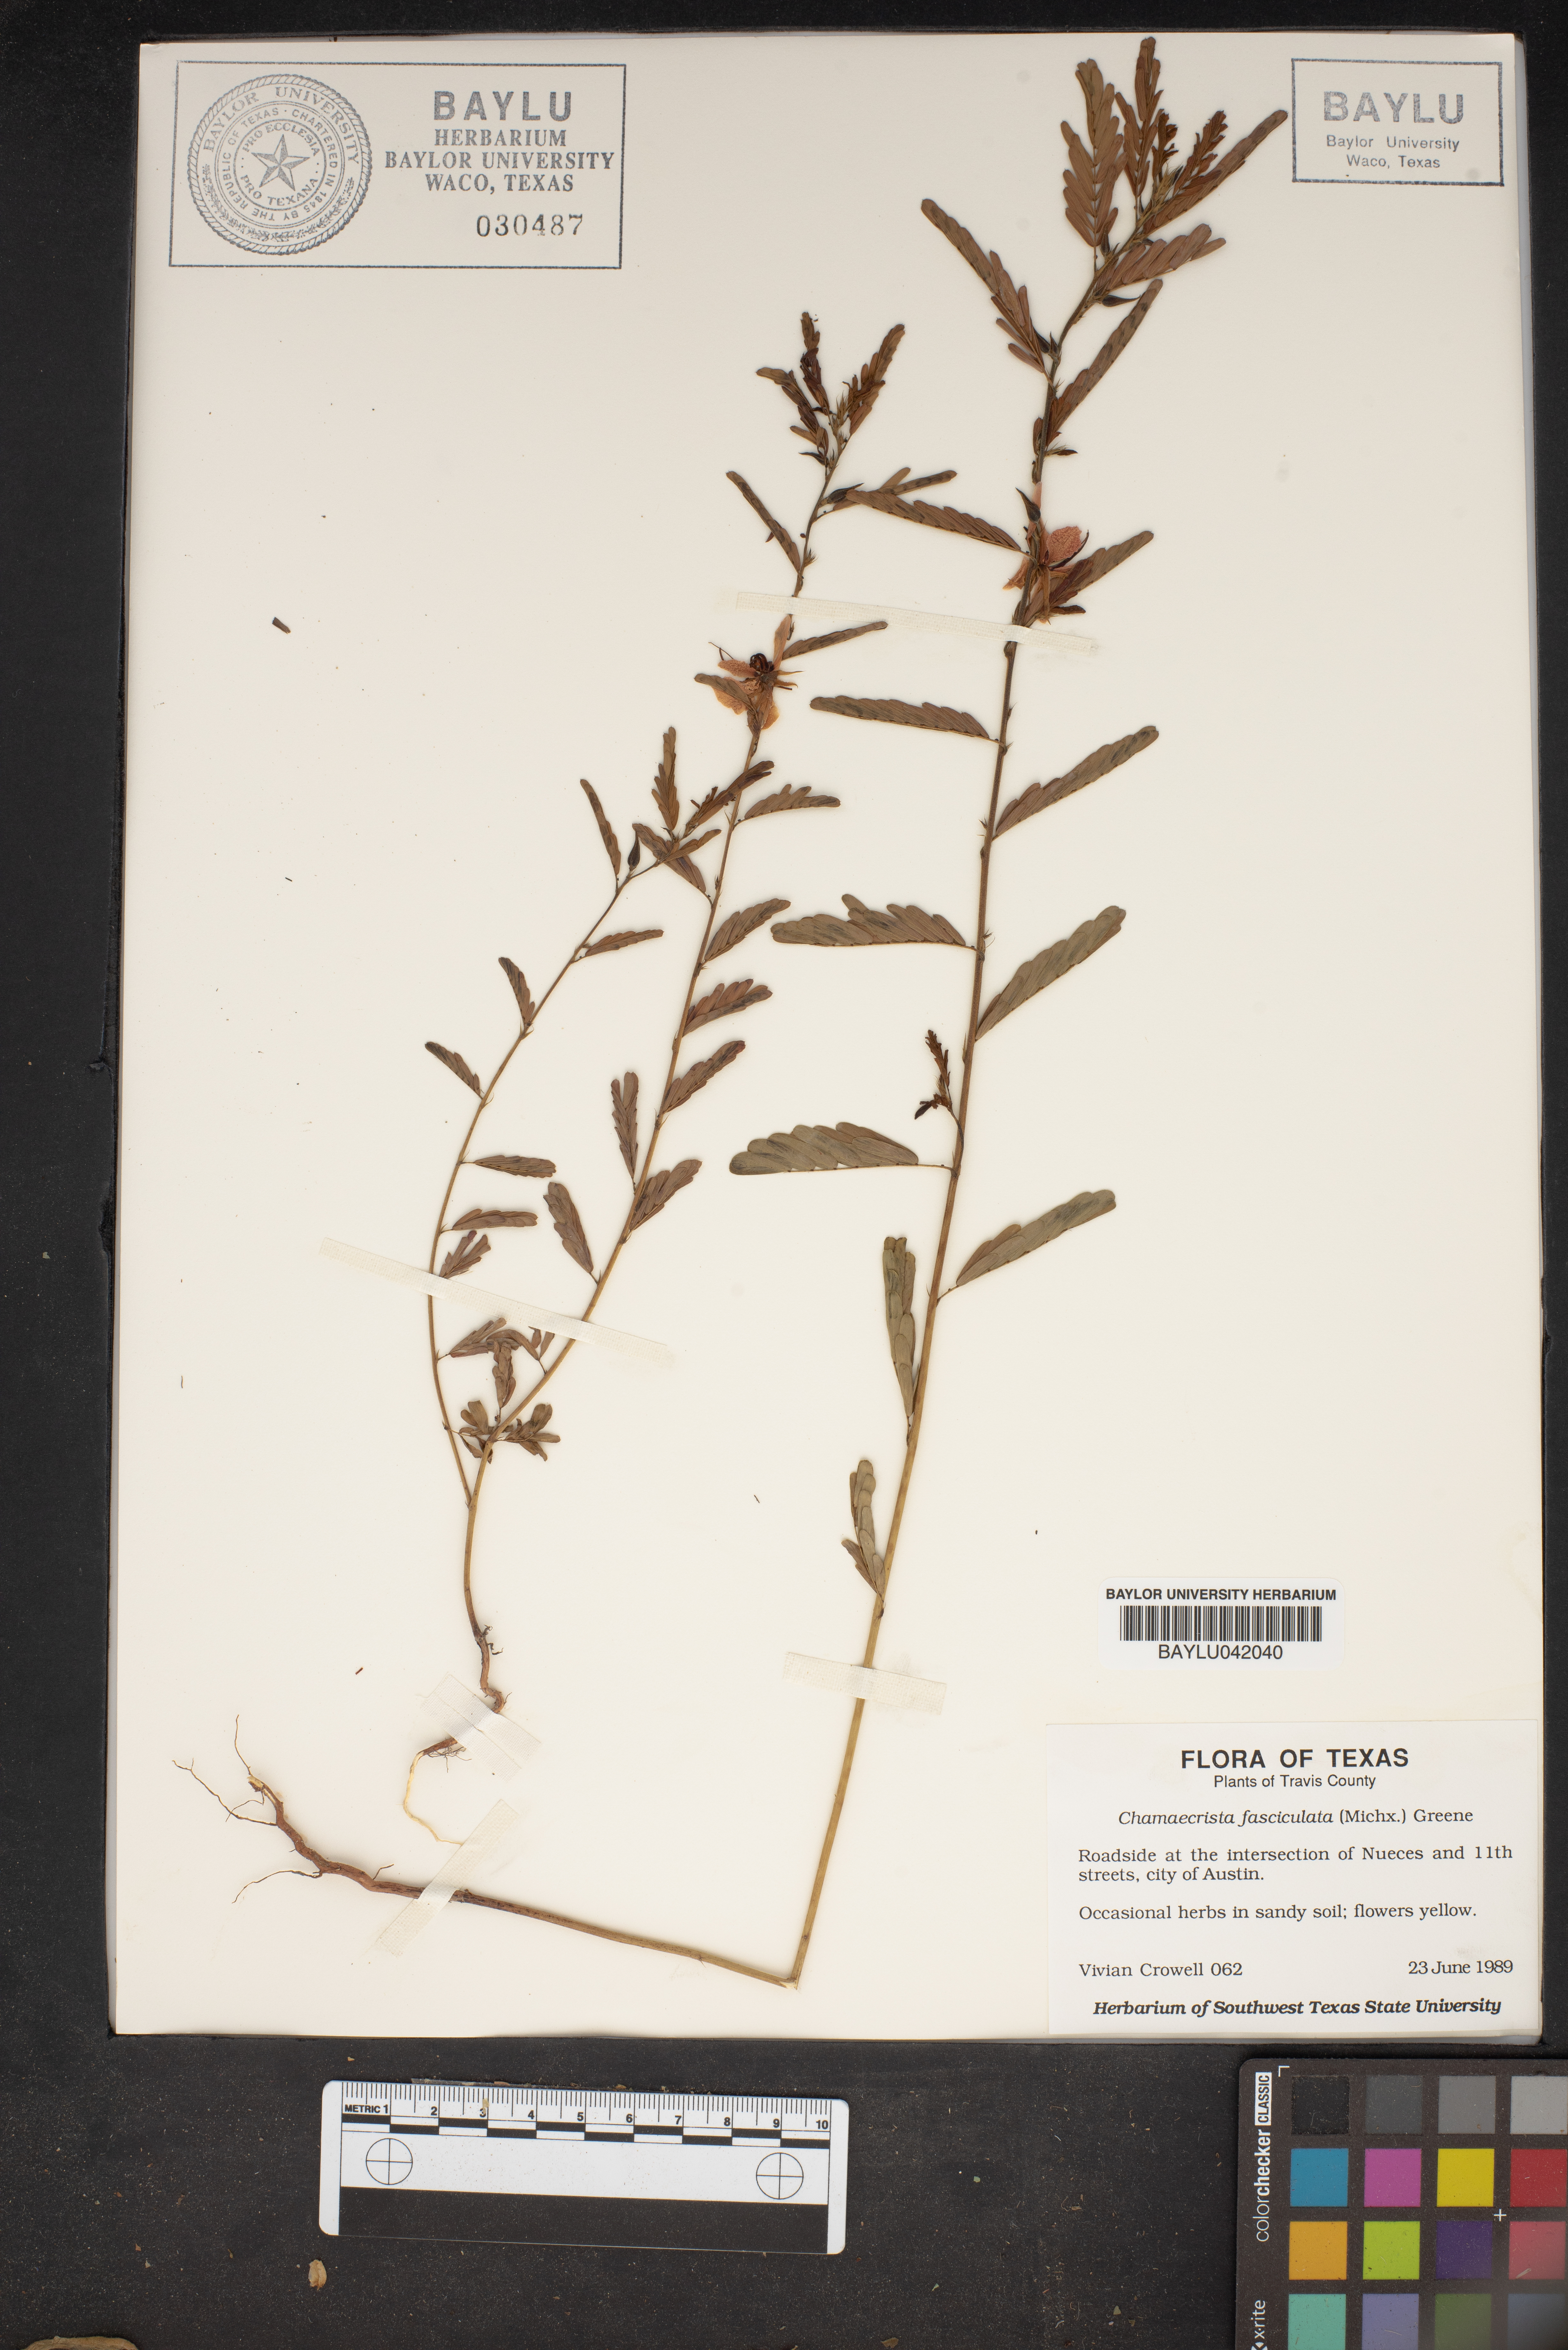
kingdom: Plantae
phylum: Tracheophyta
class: Magnoliopsida
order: Fabales
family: Fabaceae
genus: Chamaecrista
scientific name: Chamaecrista fasciculata
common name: Golden cassia
